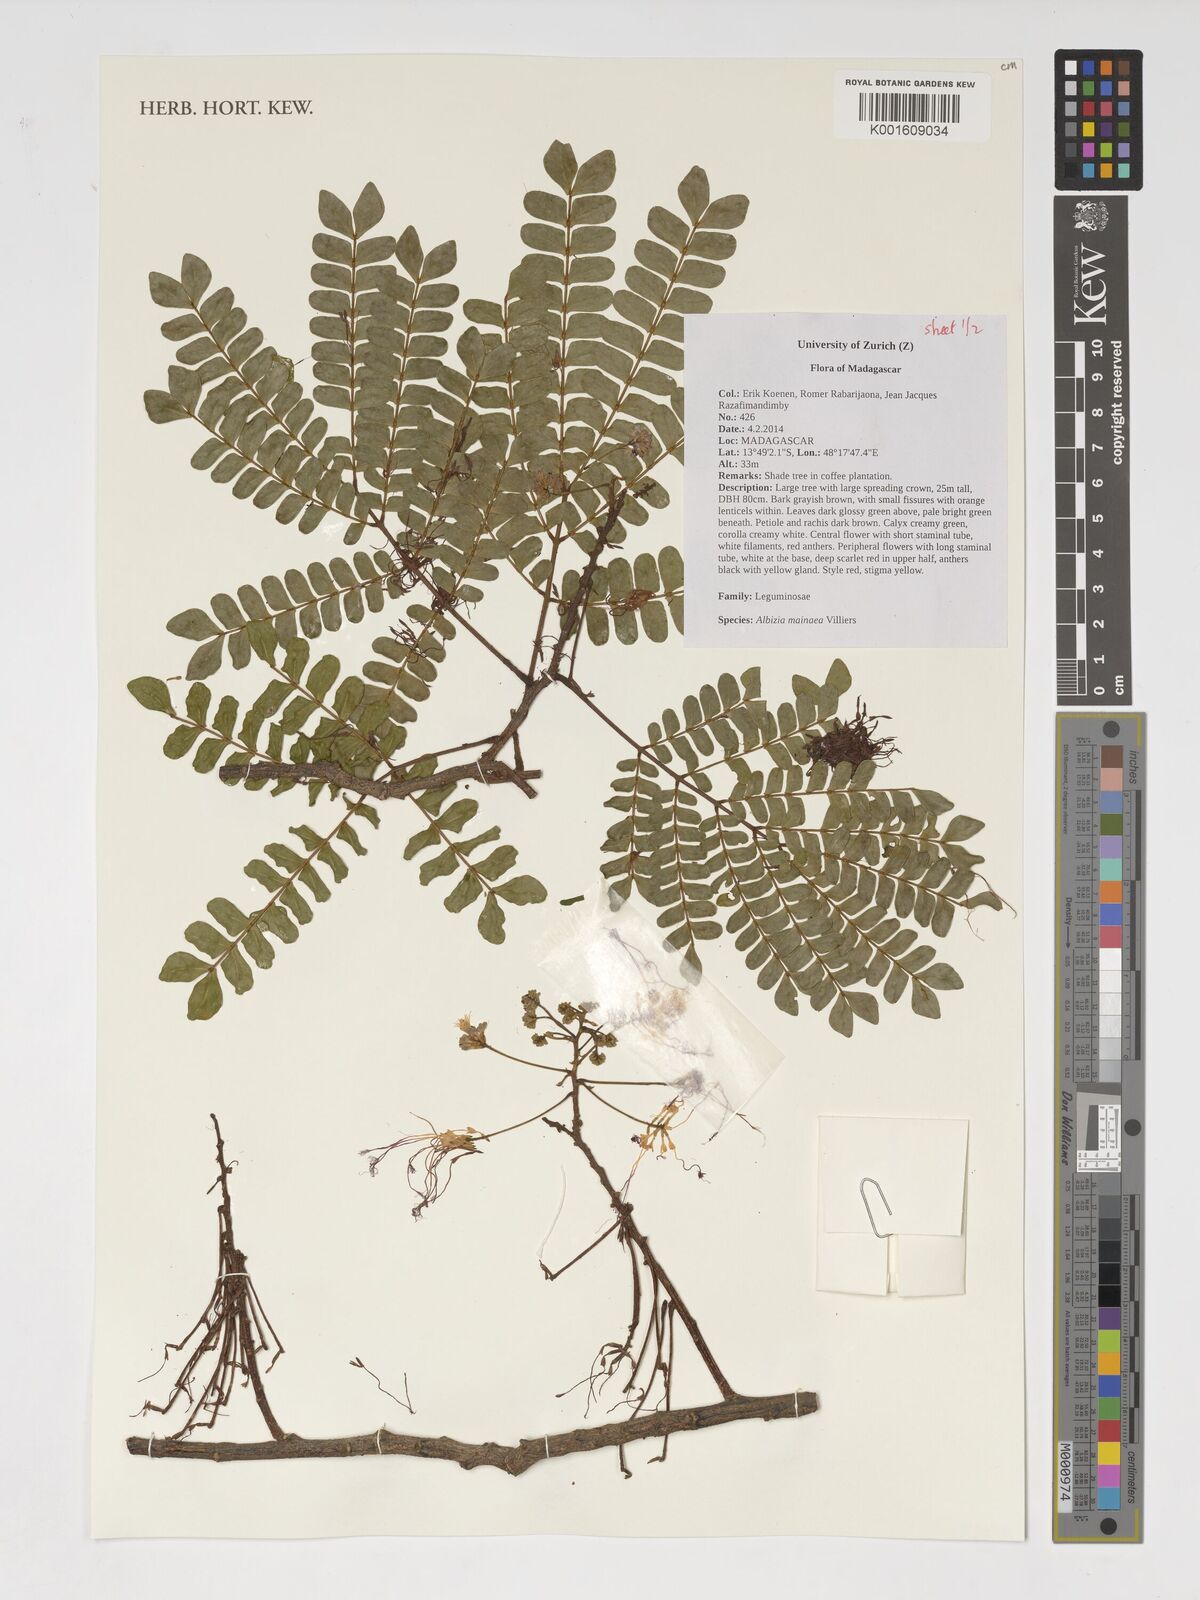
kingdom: Plantae
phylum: Tracheophyta
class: Magnoliopsida
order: Fabales
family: Fabaceae
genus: Albizia
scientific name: Albizia mainaea
